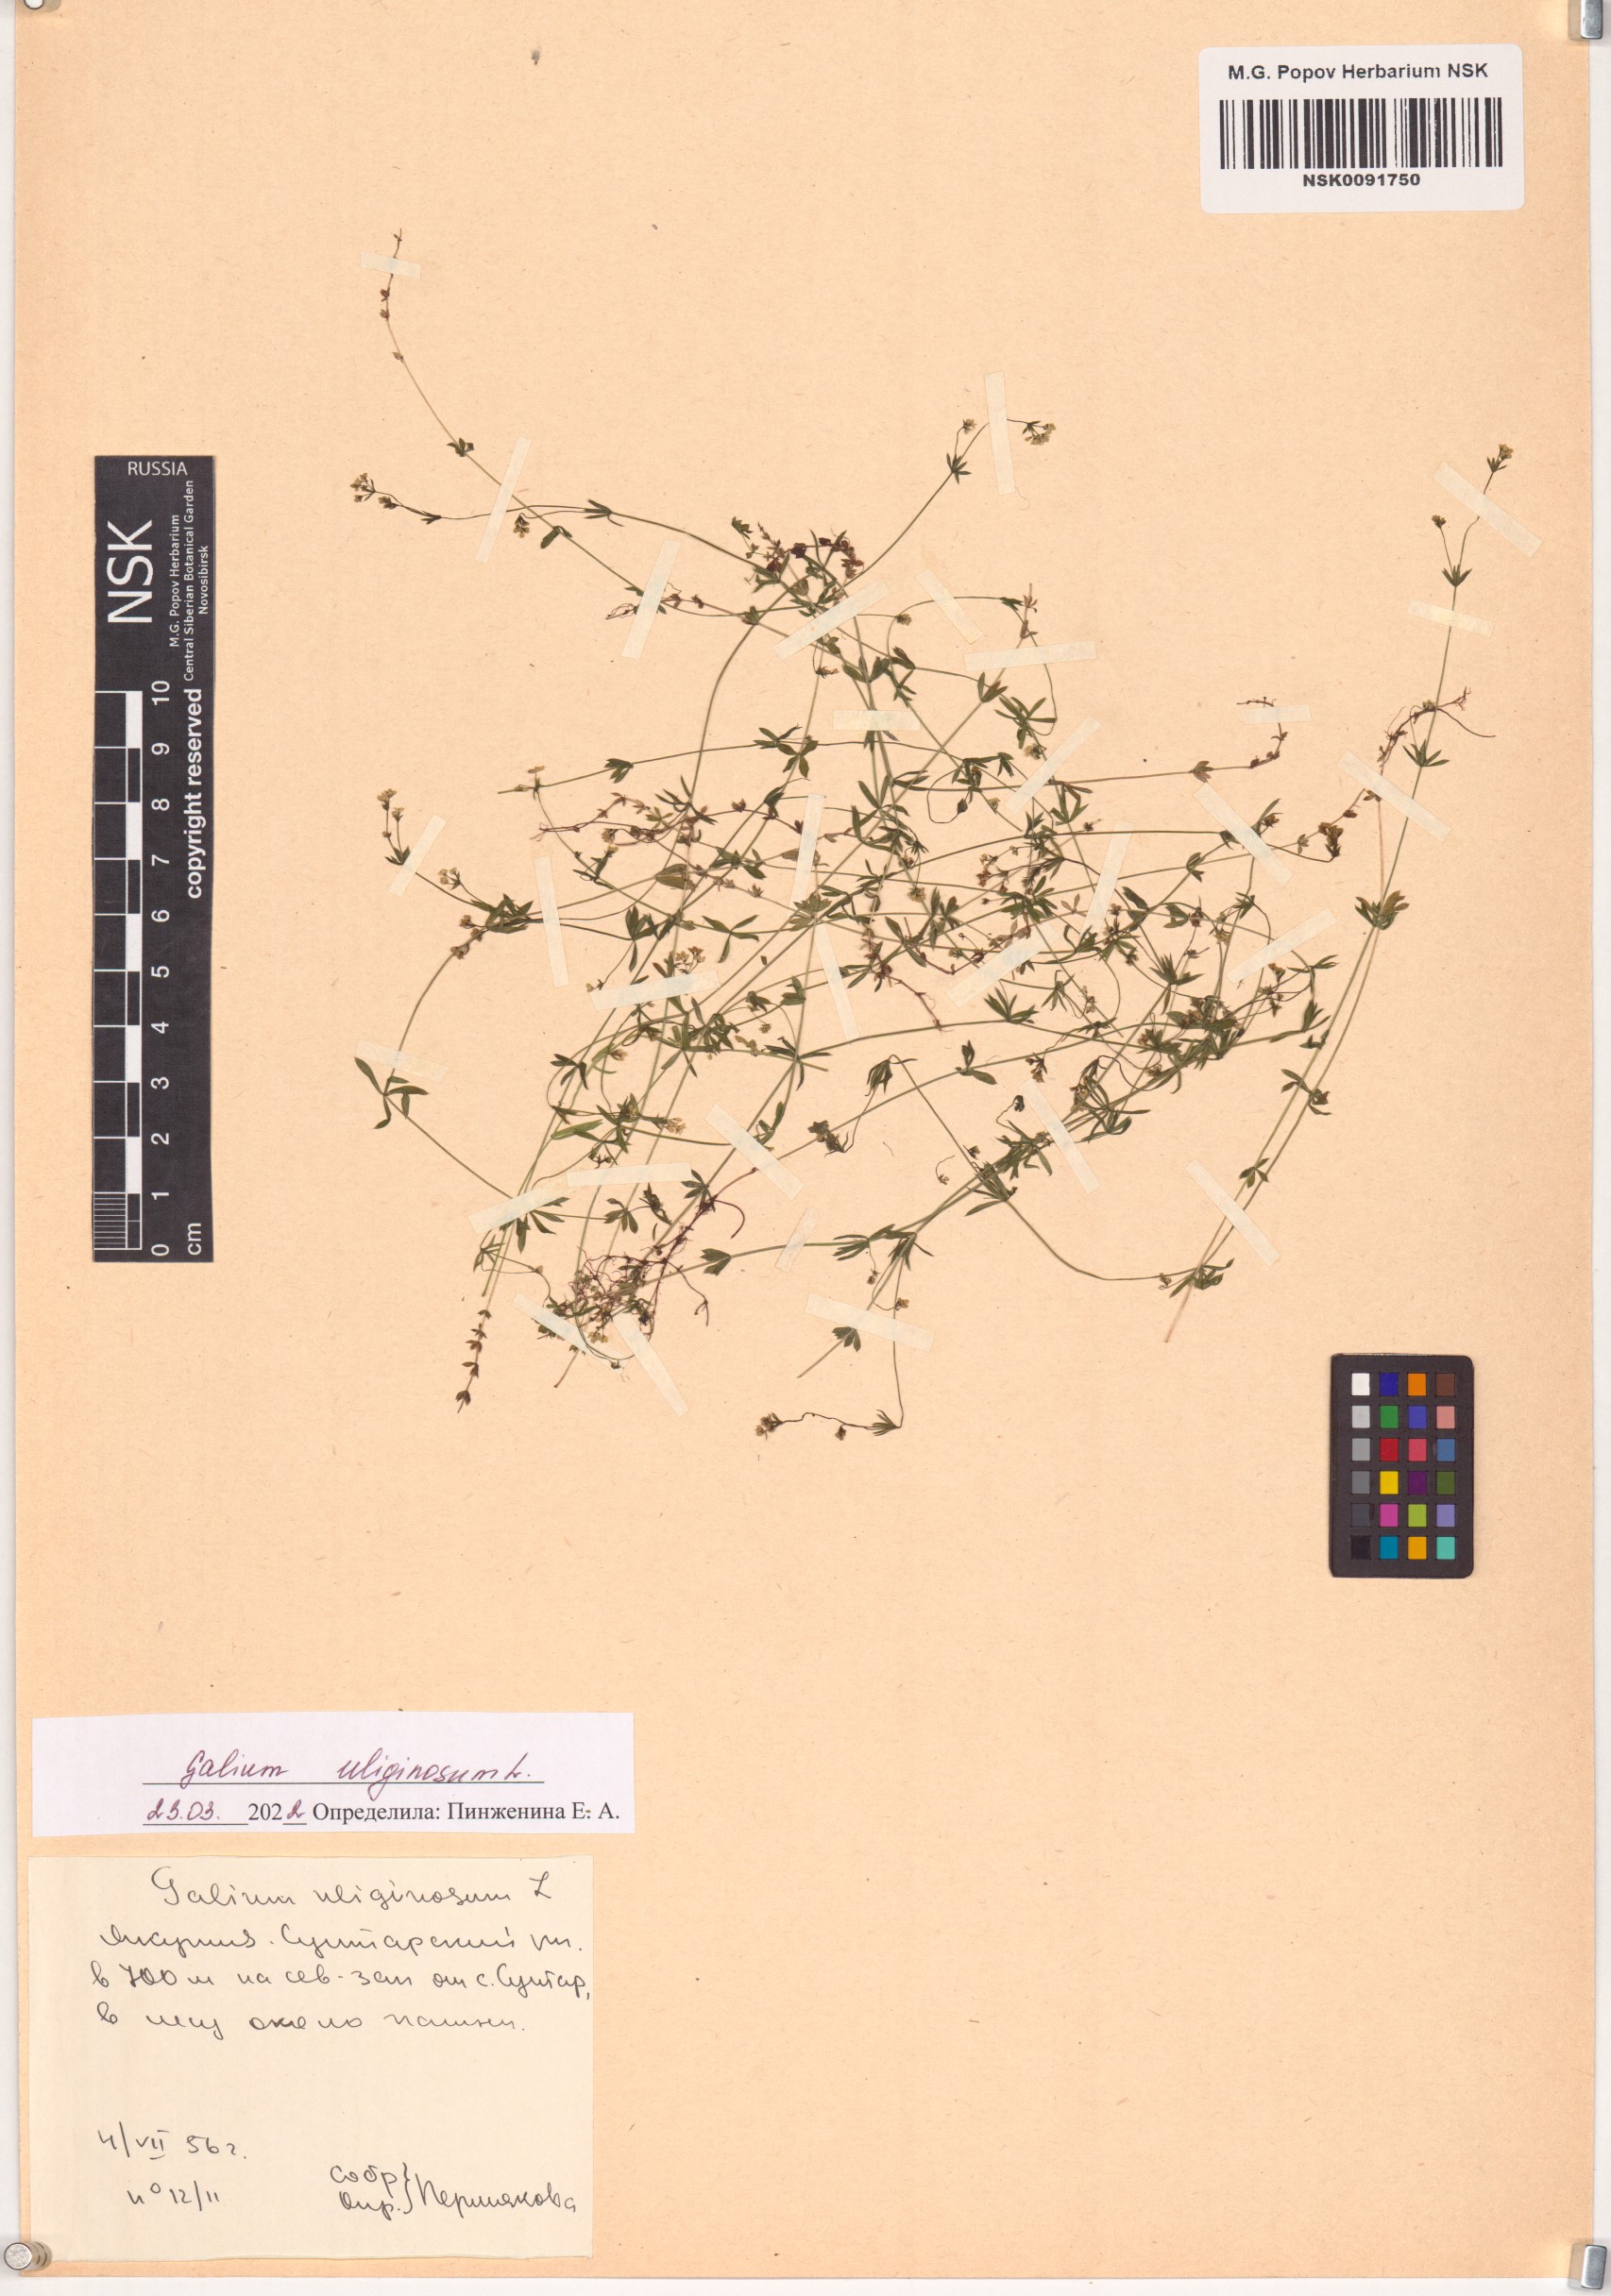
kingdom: Plantae
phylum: Tracheophyta
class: Magnoliopsida
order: Gentianales
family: Rubiaceae
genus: Galium
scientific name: Galium uliginosum
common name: Fen bedstraw
